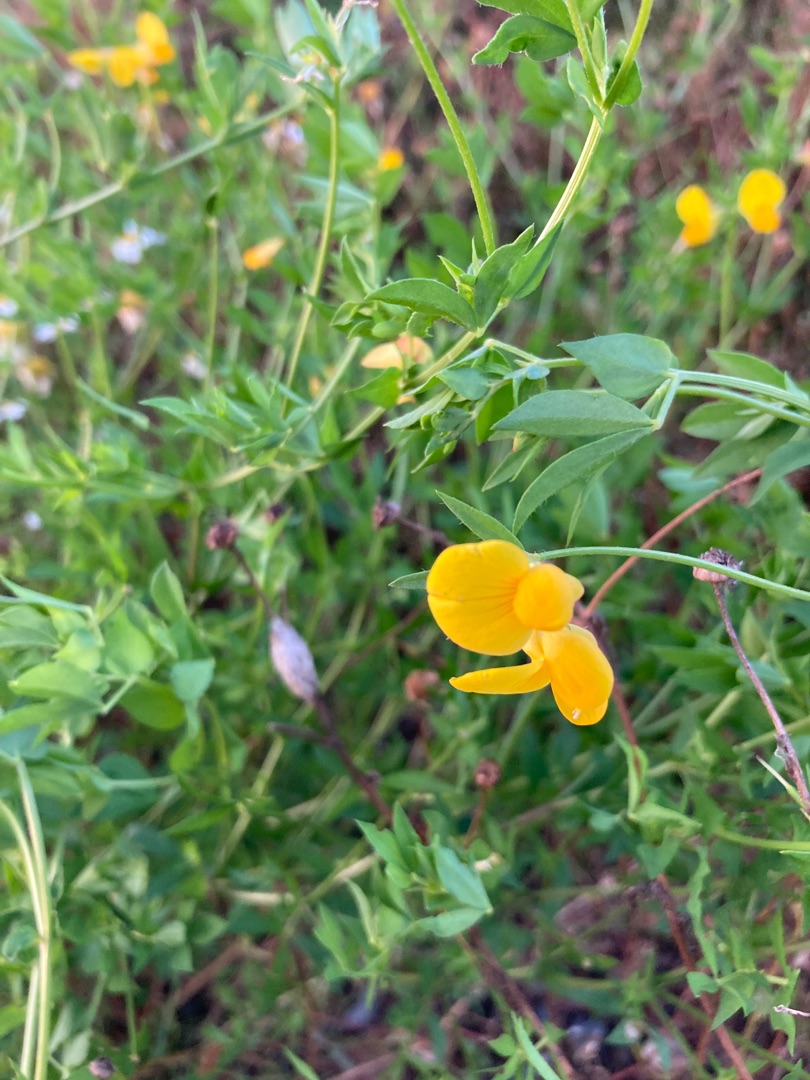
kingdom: Plantae
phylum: Tracheophyta
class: Magnoliopsida
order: Fabales
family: Fabaceae
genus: Lotus
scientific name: Lotus corniculatus
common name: Almindelig kællingetand
